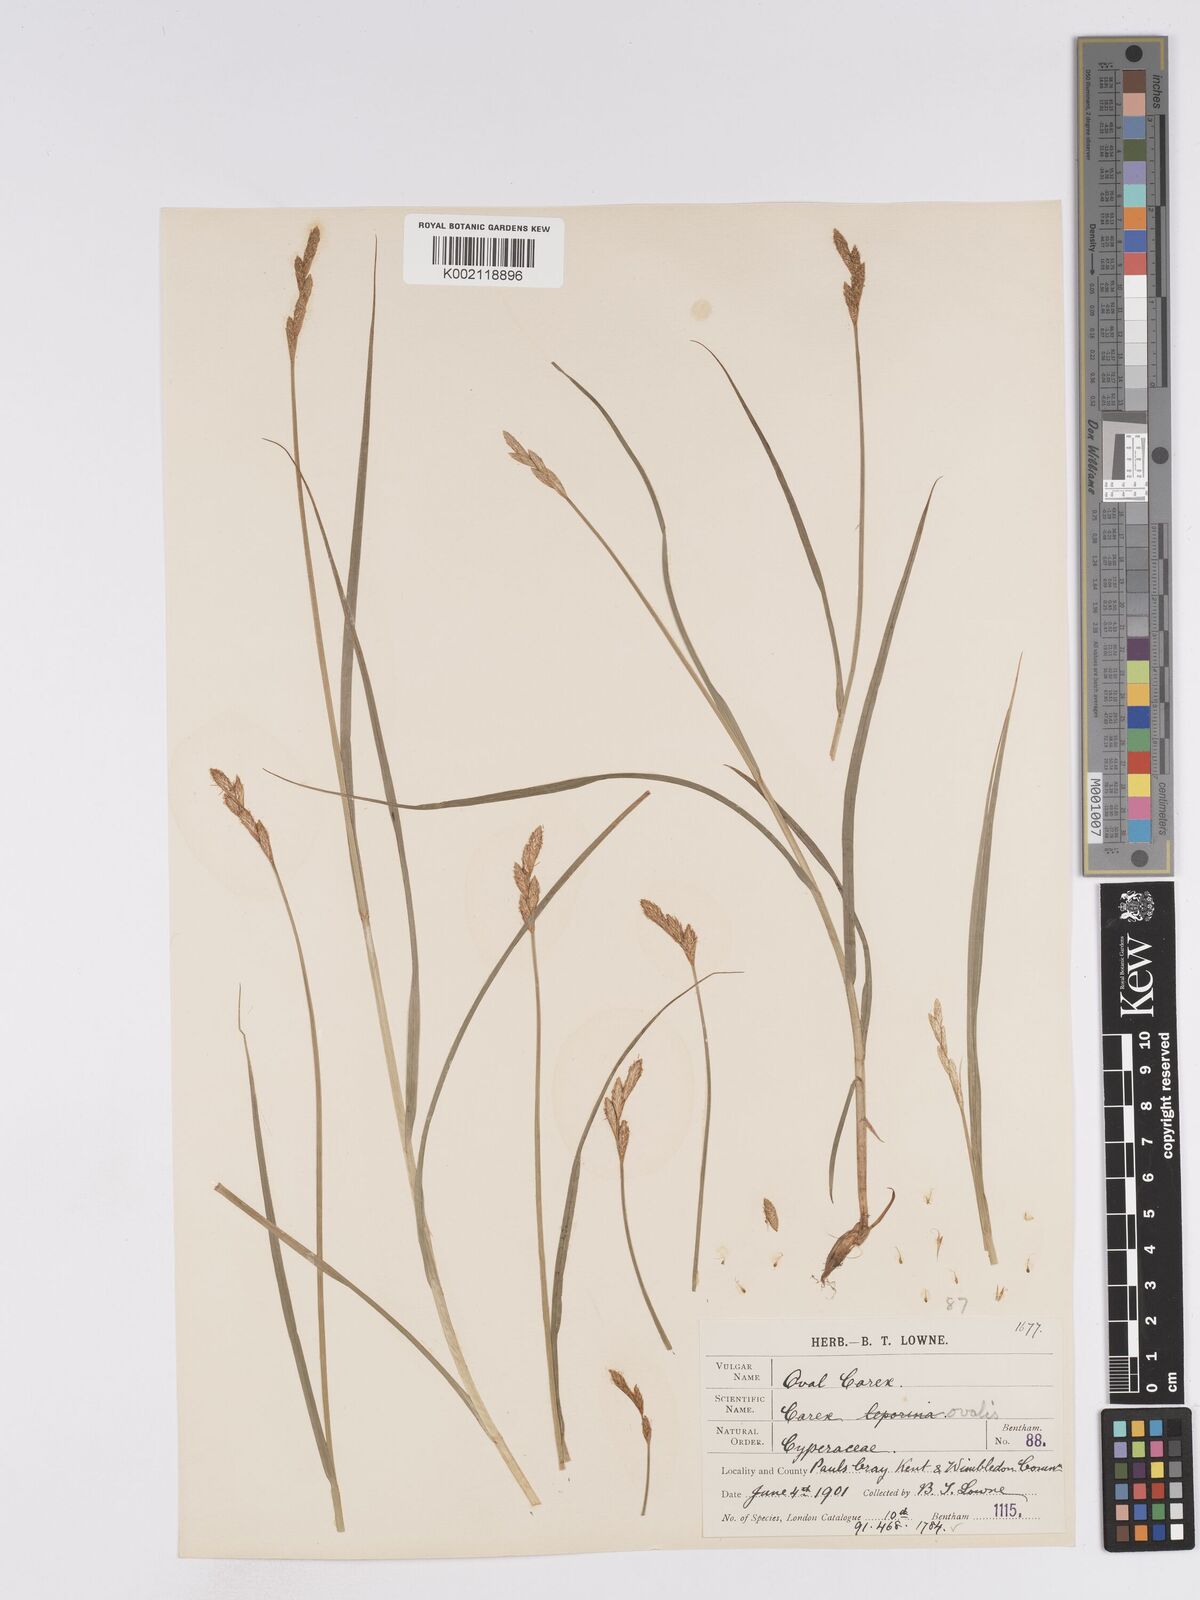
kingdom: Plantae
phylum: Tracheophyta
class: Liliopsida
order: Poales
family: Cyperaceae
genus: Carex
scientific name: Carex leporina
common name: Oval sedge
